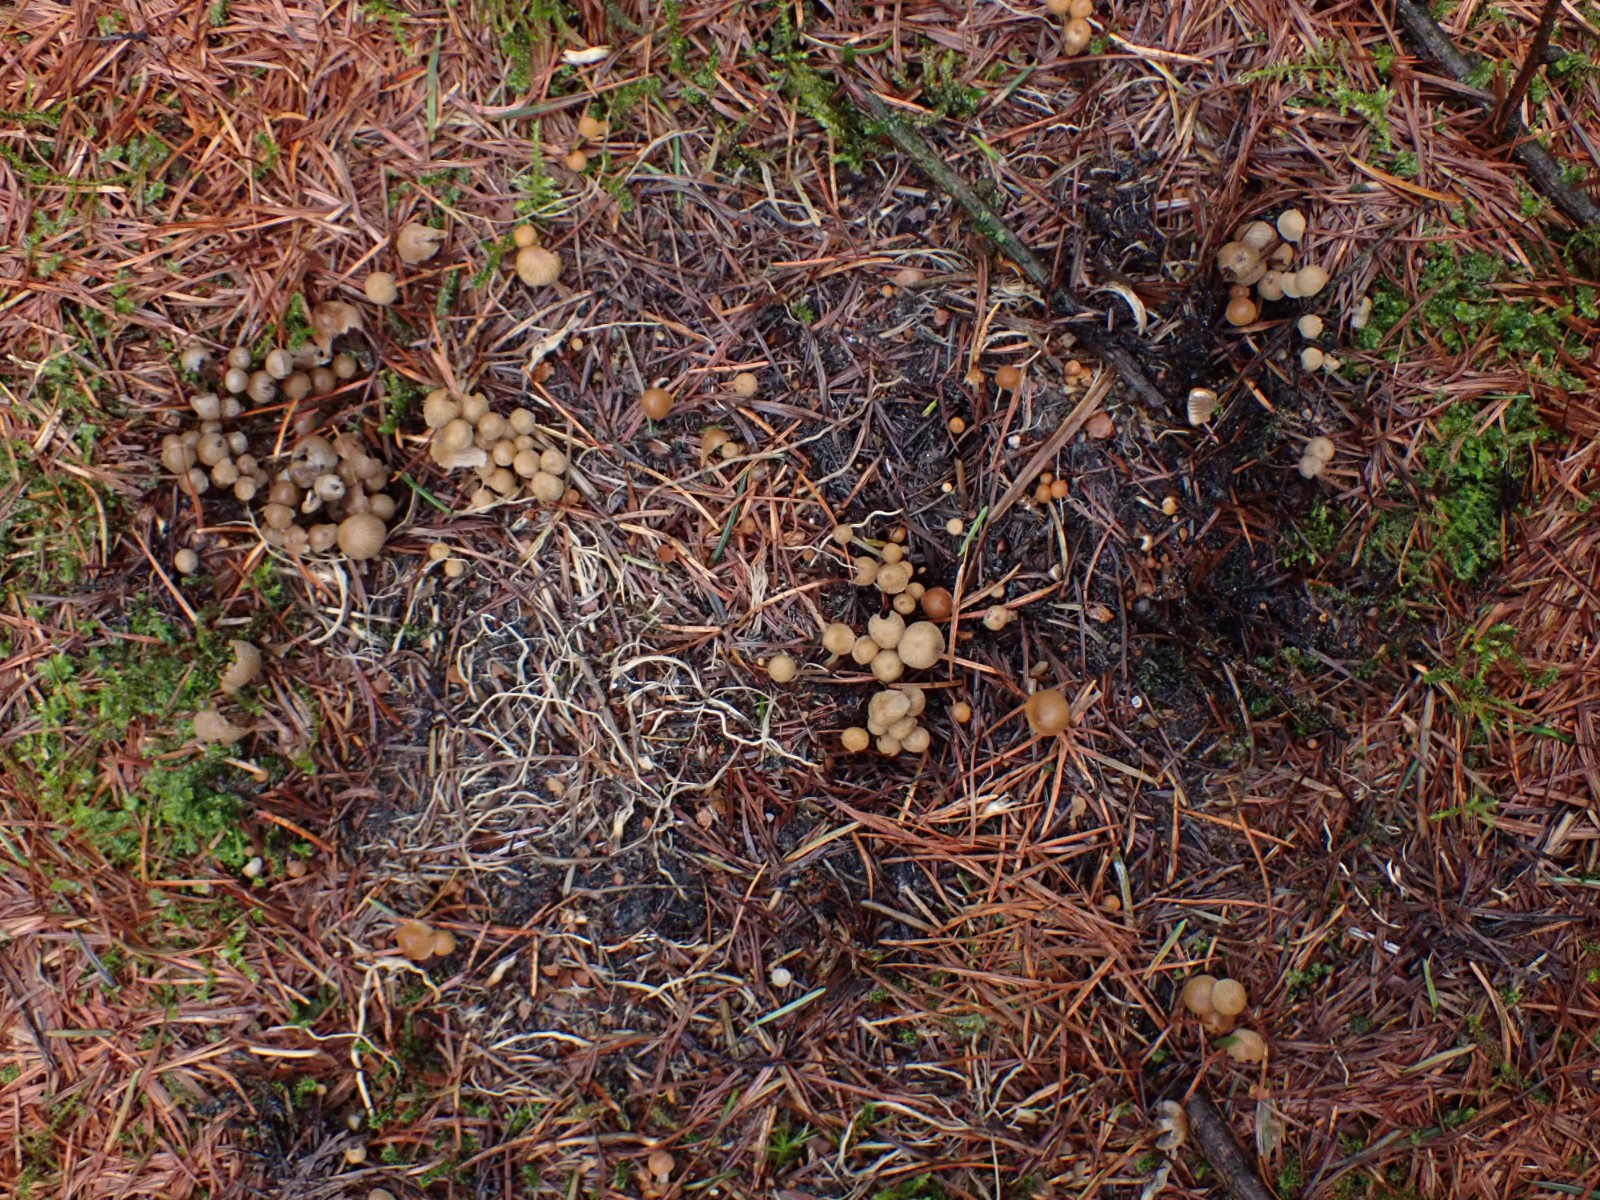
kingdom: Fungi
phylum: Basidiomycota
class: Agaricomycetes
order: Agaricales
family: Psathyrellaceae
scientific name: Psathyrellaceae
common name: mørkhatfamilien
